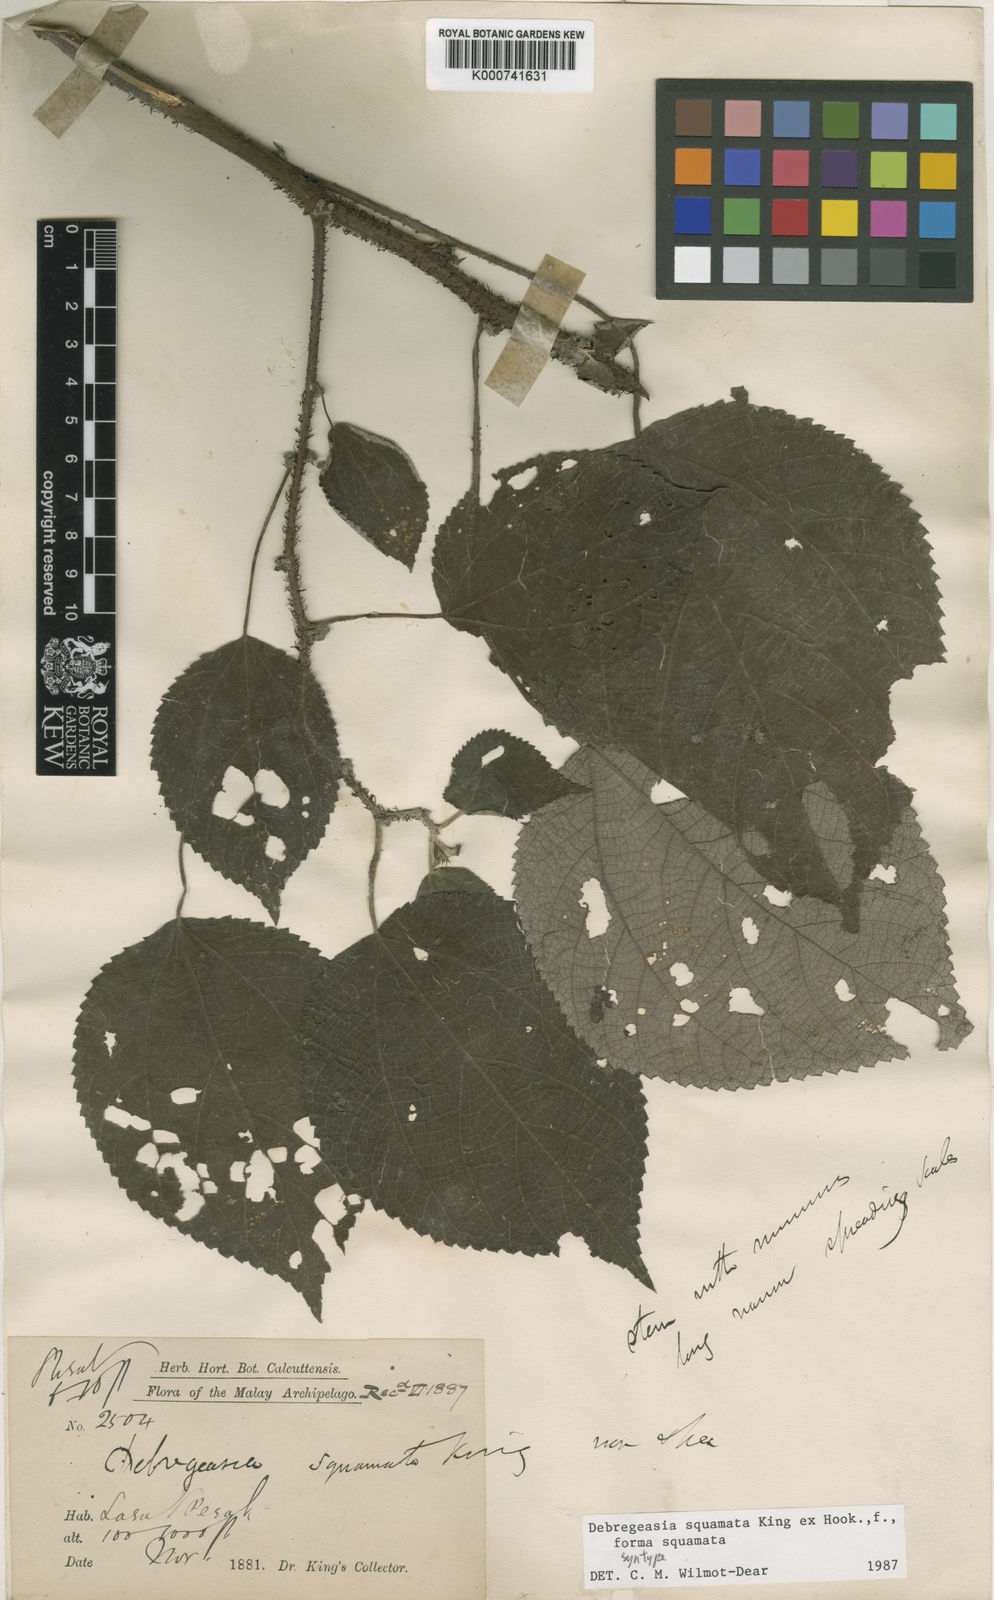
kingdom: Plantae
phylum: Tracheophyta
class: Magnoliopsida
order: Rosales
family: Urticaceae
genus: Debregeasia
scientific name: Debregeasia squamata
